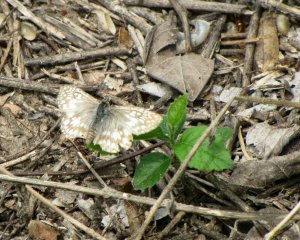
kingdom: Animalia
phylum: Arthropoda
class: Insecta
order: Lepidoptera
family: Hesperiidae
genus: Pyrgus
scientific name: Pyrgus communis
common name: White Checkered-Skipper
